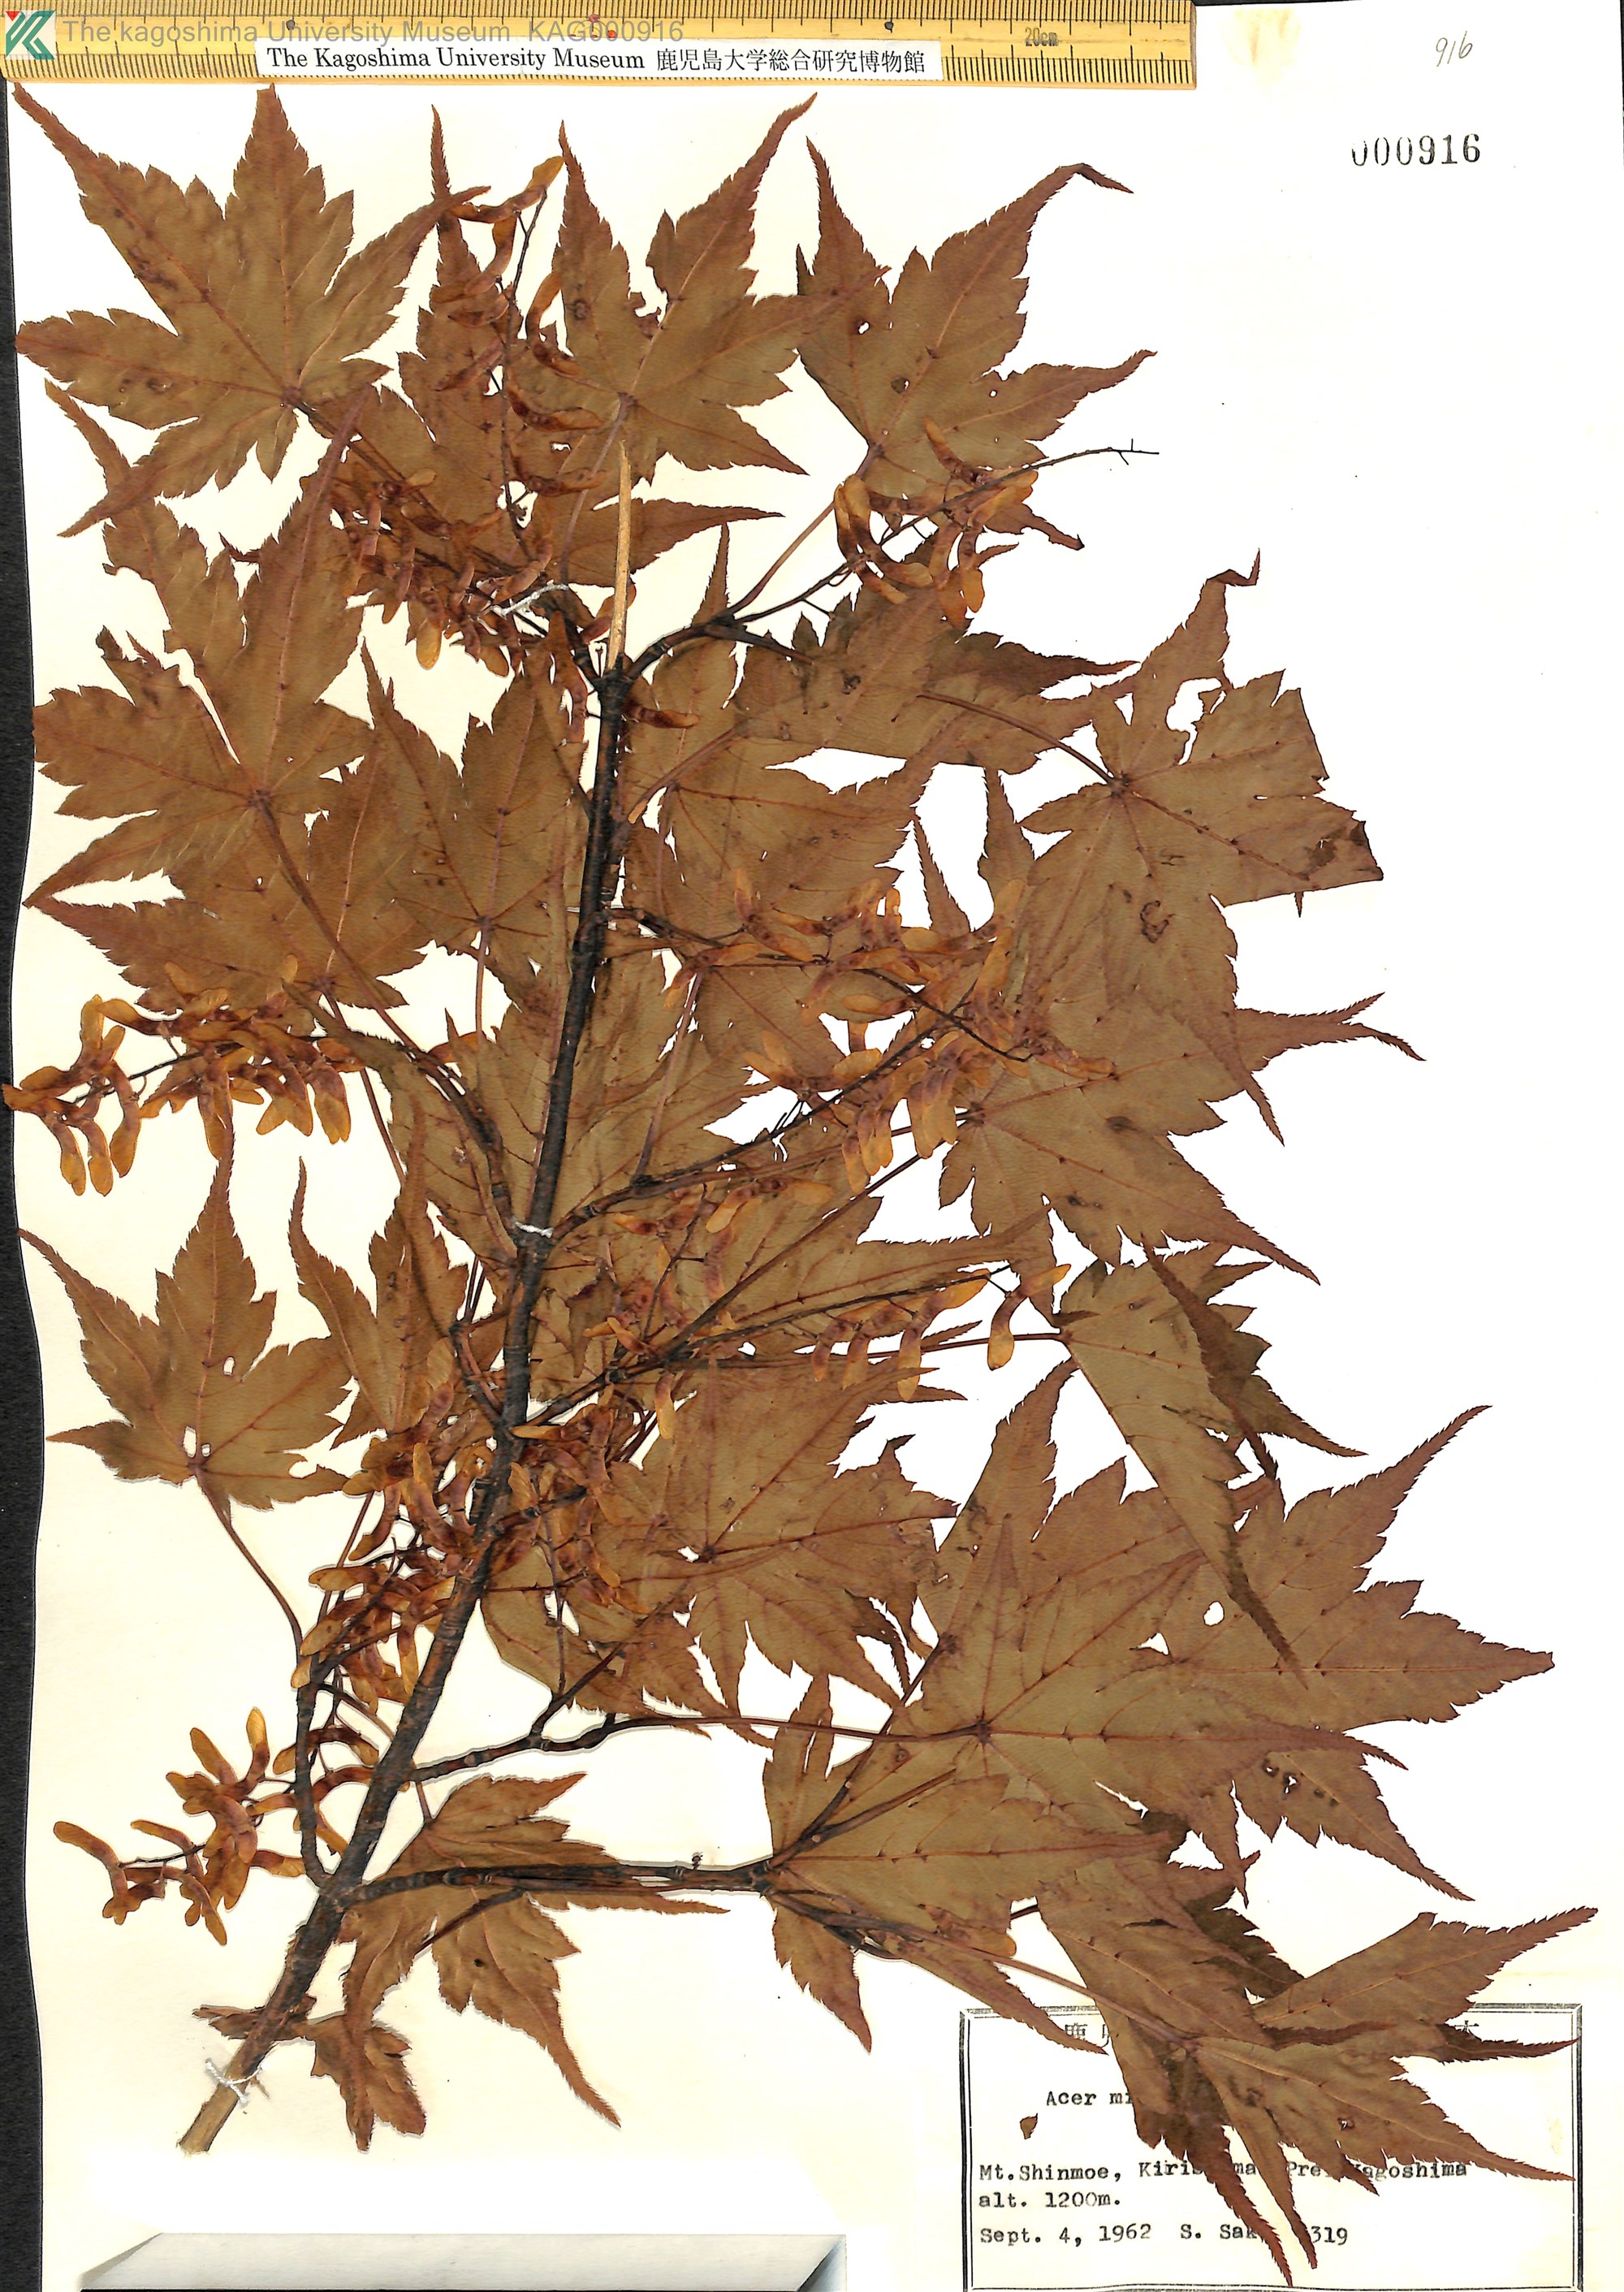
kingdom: Plantae
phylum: Tracheophyta
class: Magnoliopsida
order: Sapindales
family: Sapindaceae
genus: Acer
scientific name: Acer micranthum
